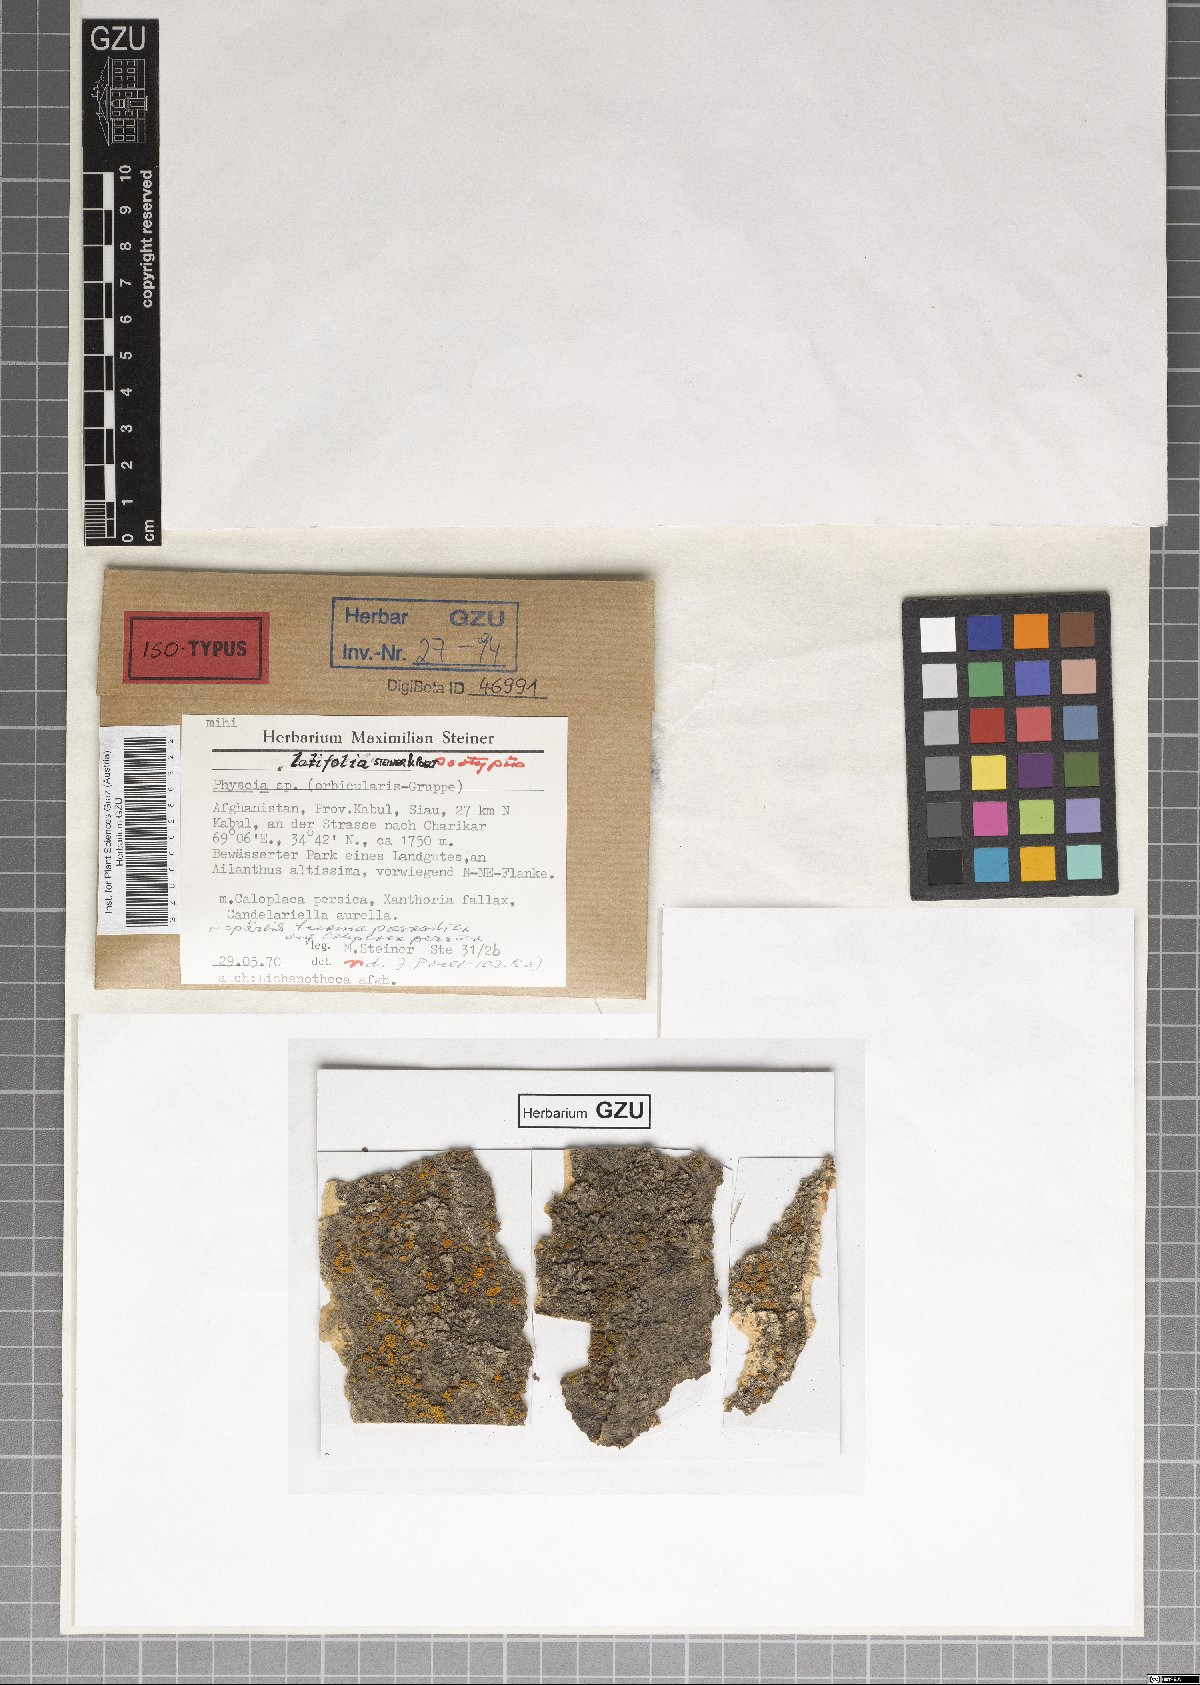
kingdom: Fungi
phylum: Ascomycota
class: Lecanoromycetes
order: Caliciales
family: Physciaceae
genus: Physcia
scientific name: Physcia
